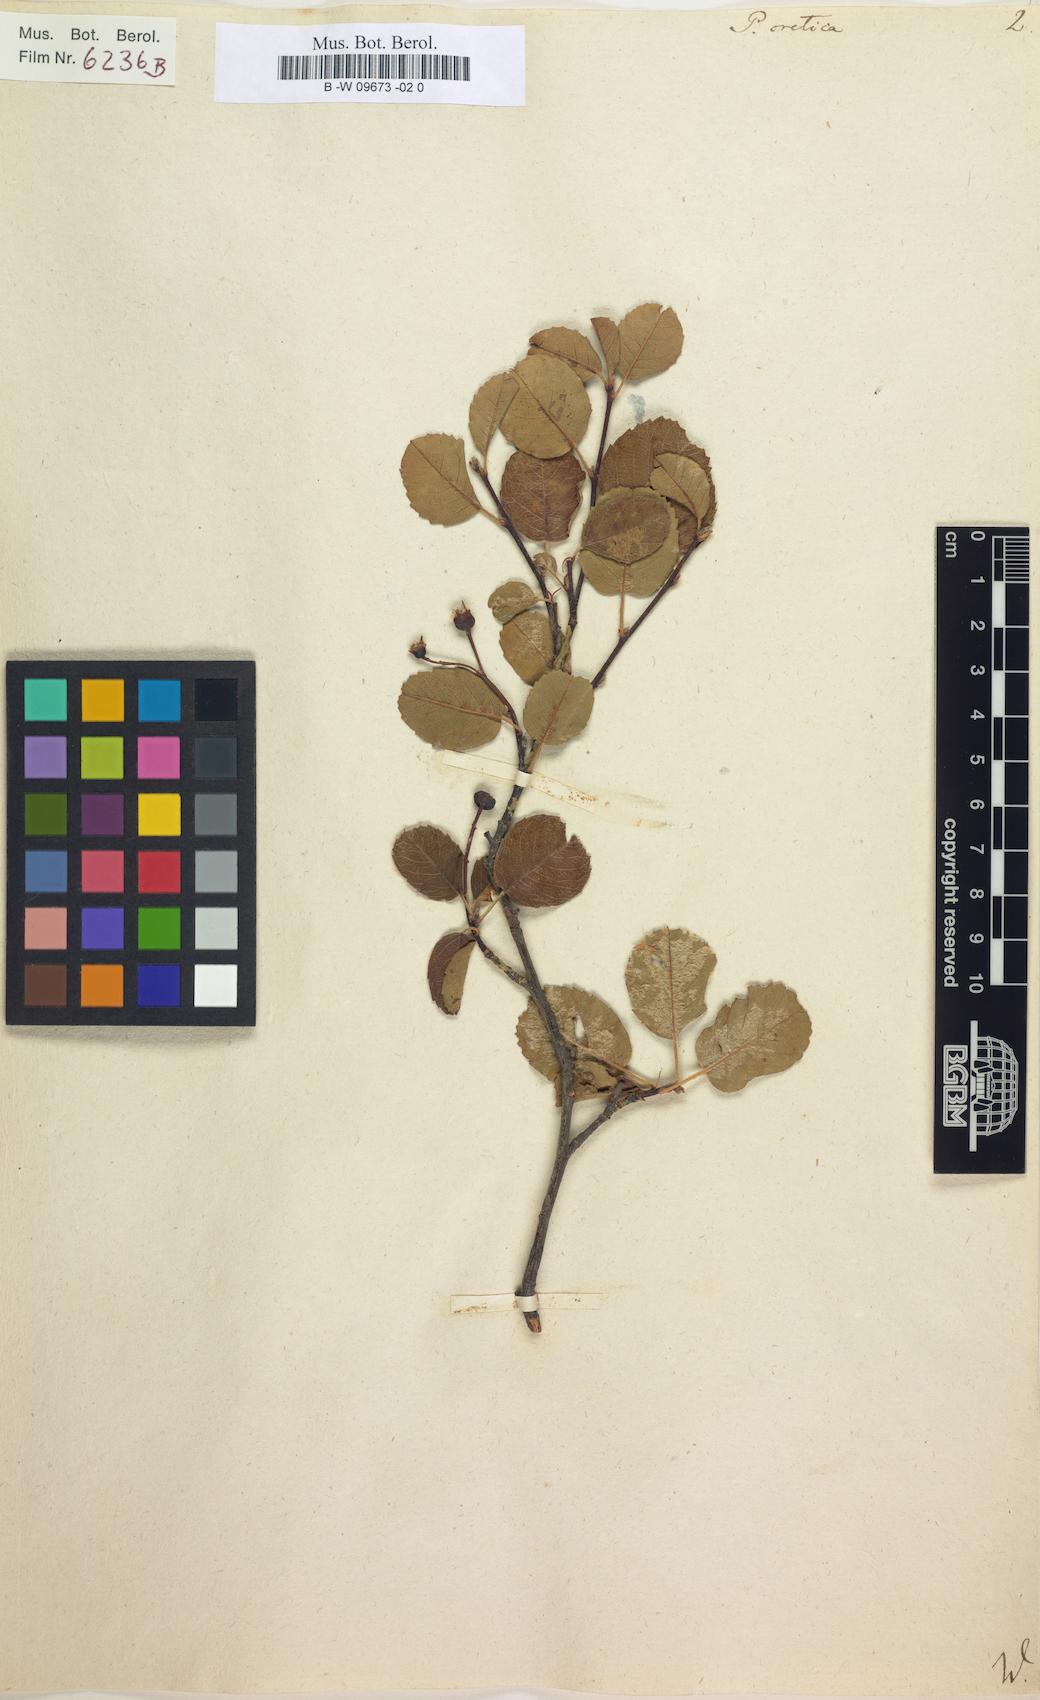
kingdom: Plantae
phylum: Tracheophyta
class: Magnoliopsida
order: Rosales
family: Rosaceae
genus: Amelanchier
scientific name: Amelanchier ovalis
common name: Serviceberry
